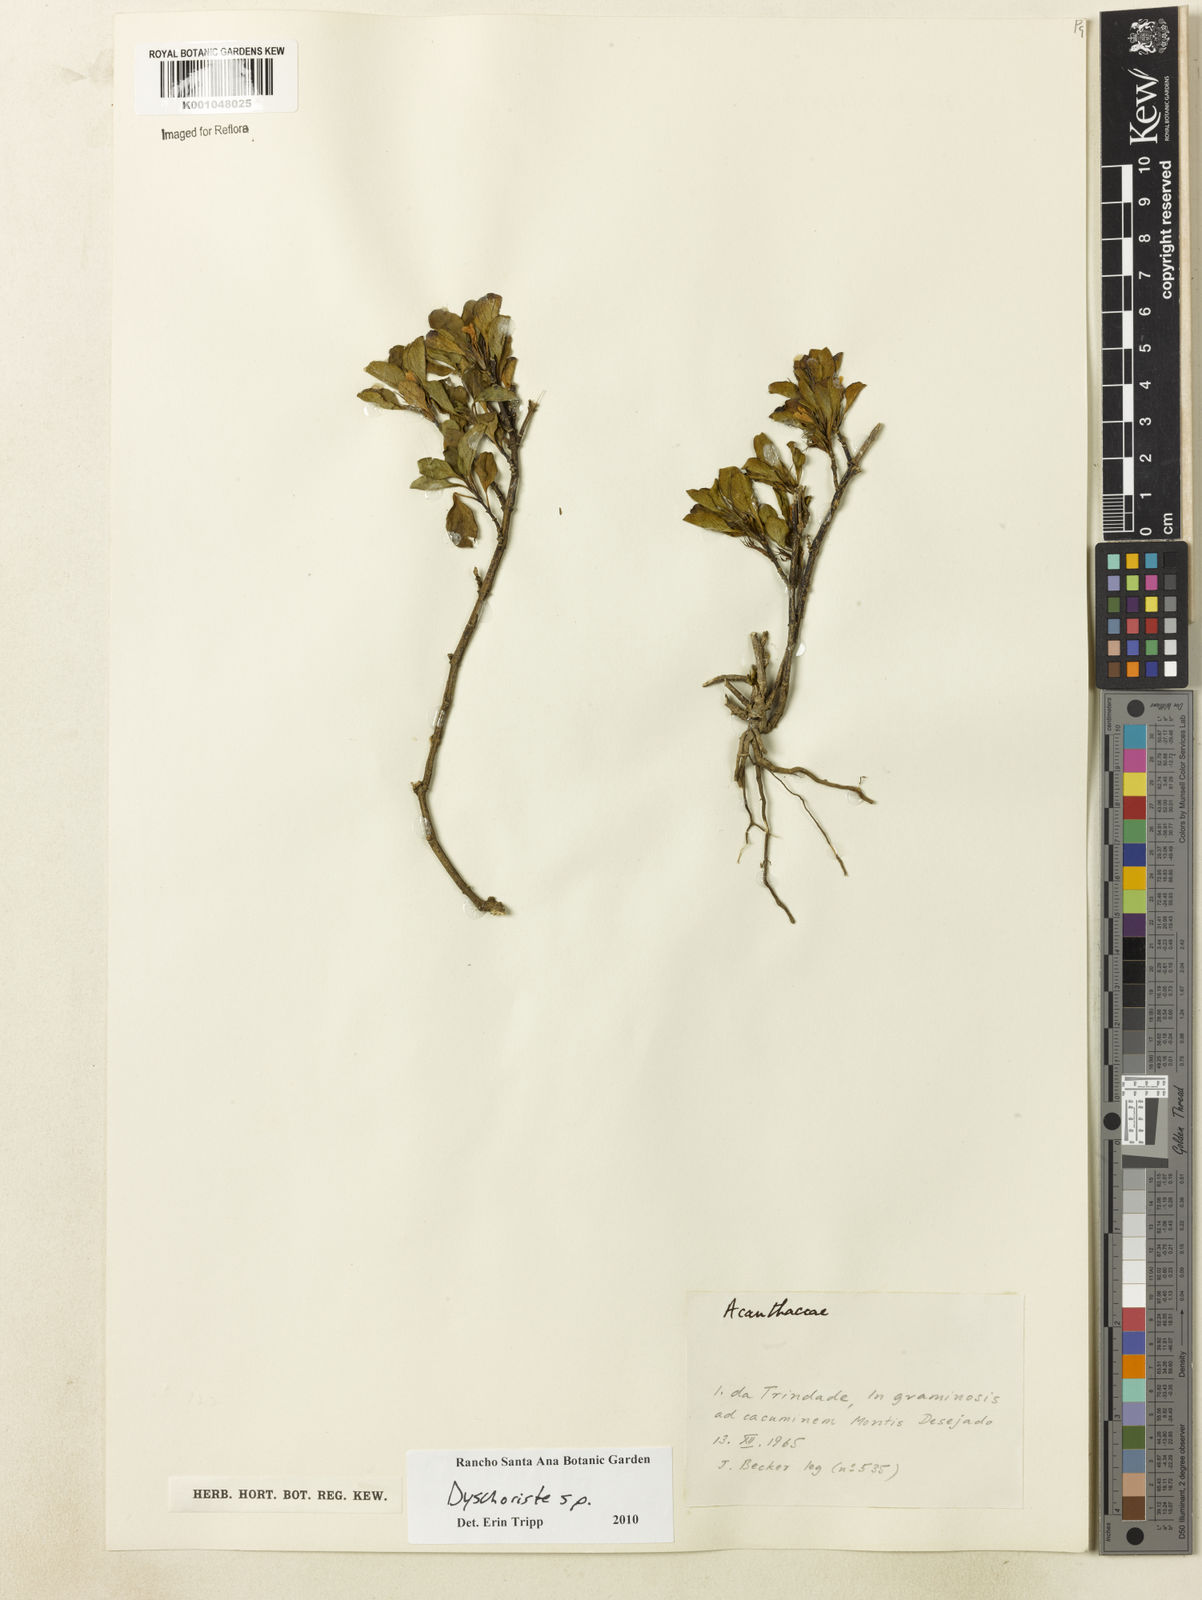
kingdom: Plantae
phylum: Tracheophyta
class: Magnoliopsida
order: Lamiales
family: Acanthaceae
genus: Dyschoriste
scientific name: Dyschoriste
